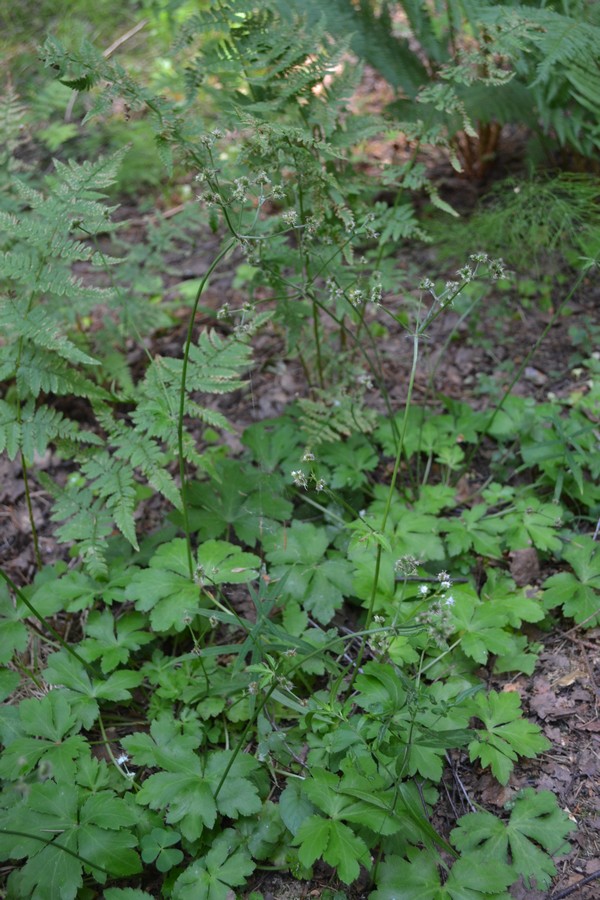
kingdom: Plantae
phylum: Tracheophyta
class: Magnoliopsida
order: Apiales
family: Apiaceae
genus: Sanicula
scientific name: Sanicula europaea
